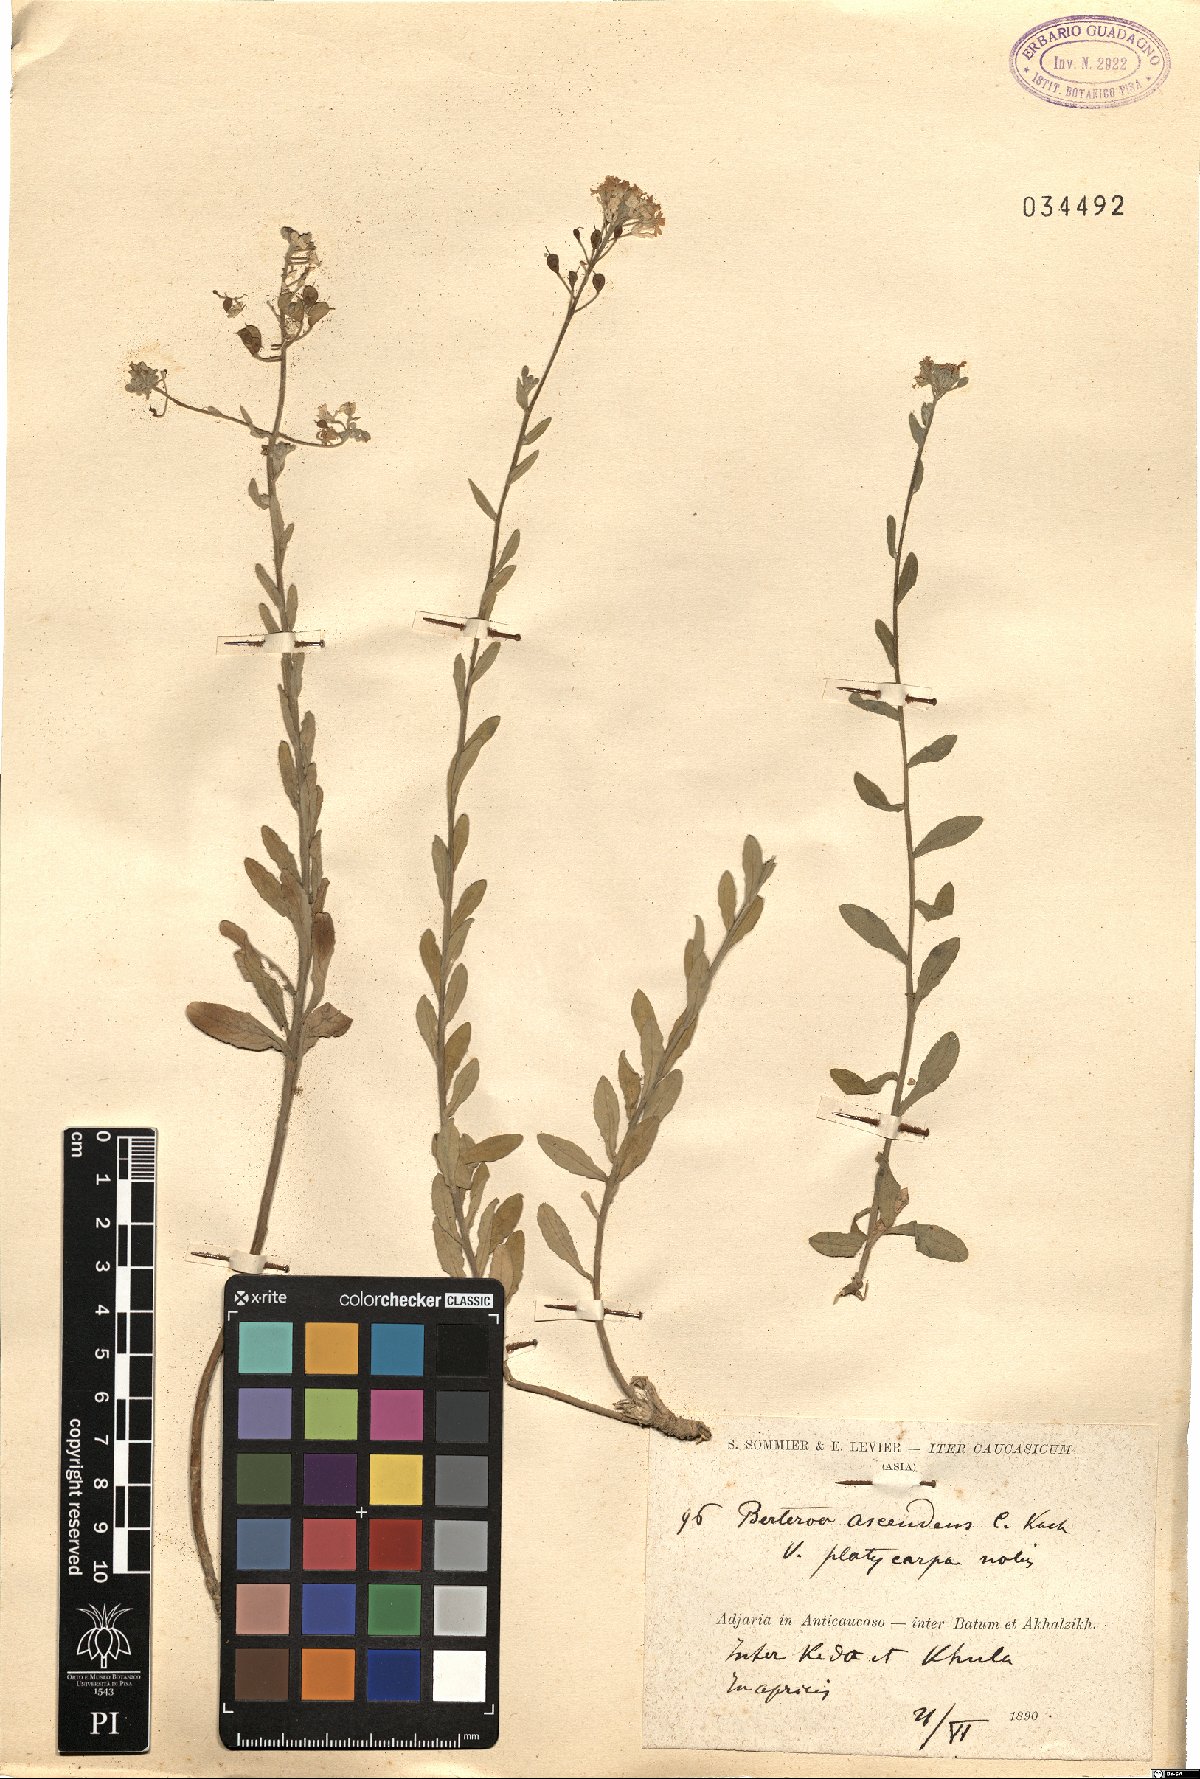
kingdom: Plantae
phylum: Tracheophyta
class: Magnoliopsida
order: Brassicales
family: Brassicaceae
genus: Berteroa
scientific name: Berteroa mutabilis
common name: Roadside false madwort
